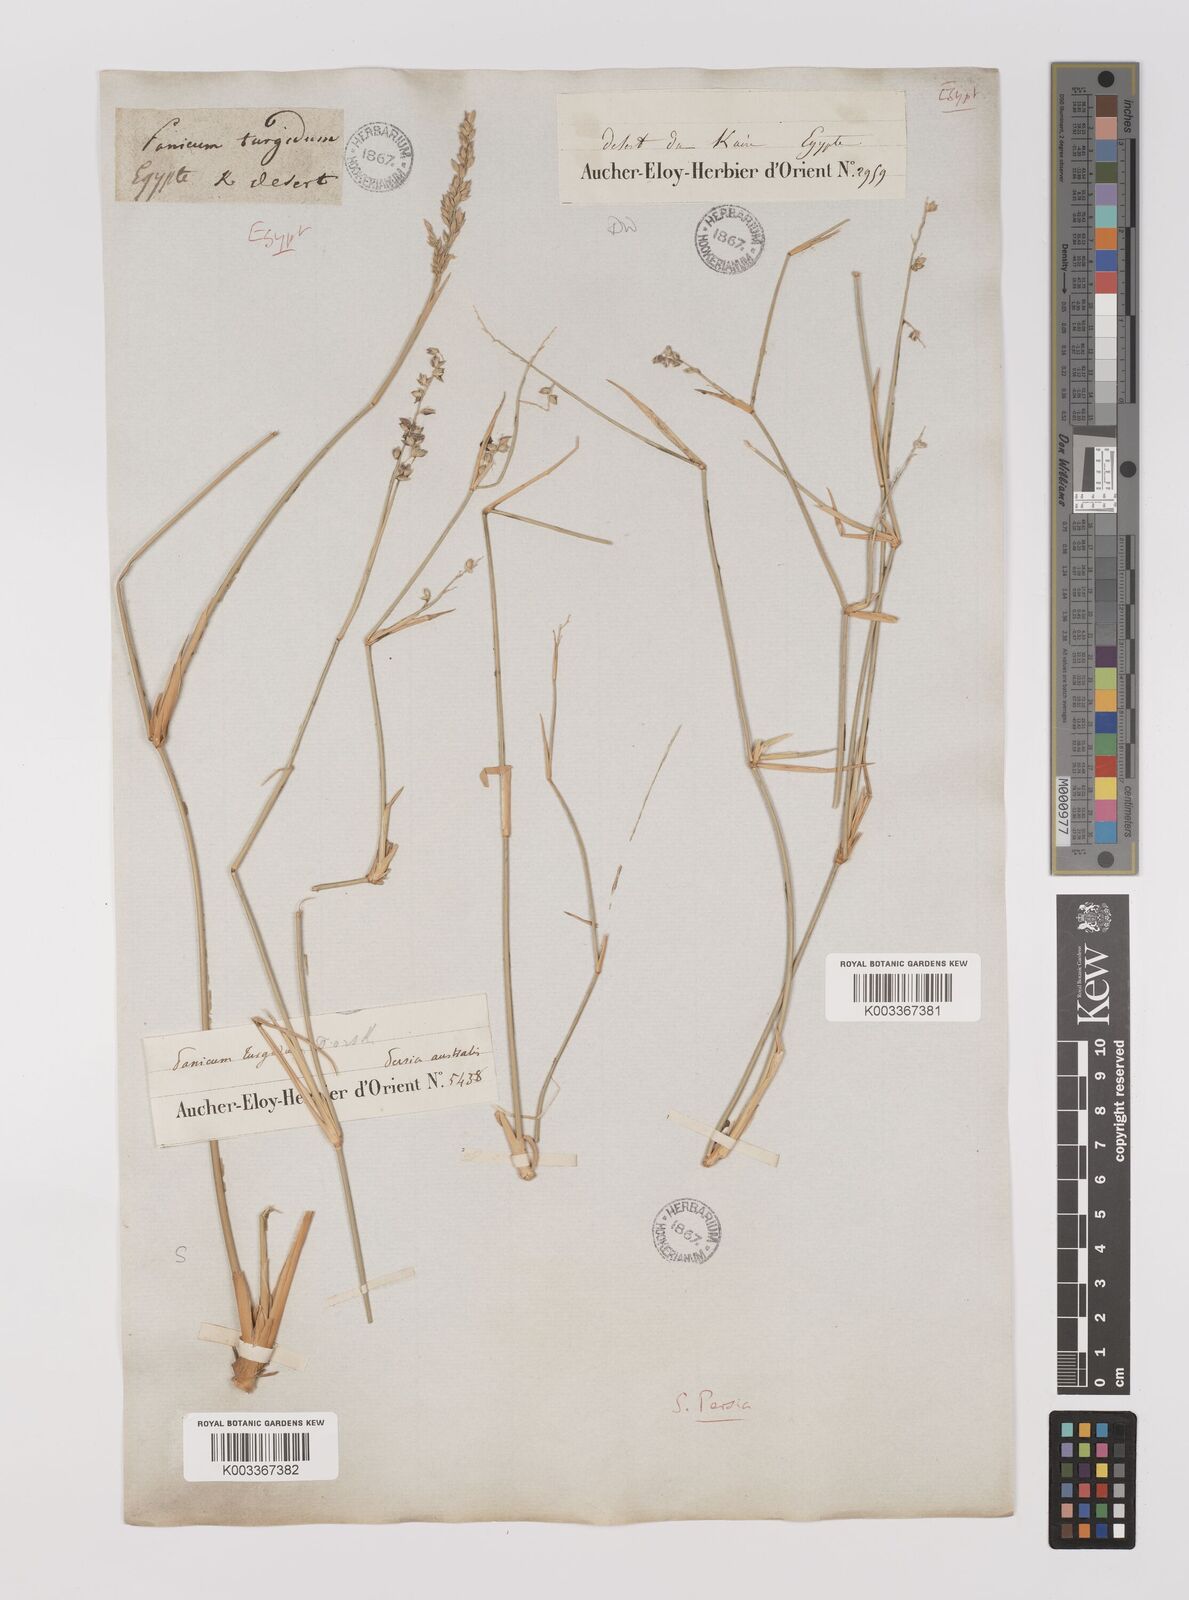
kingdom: Plantae
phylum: Tracheophyta
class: Liliopsida
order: Poales
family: Poaceae
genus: Panicum
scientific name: Panicum turgidum
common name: Desert grass
